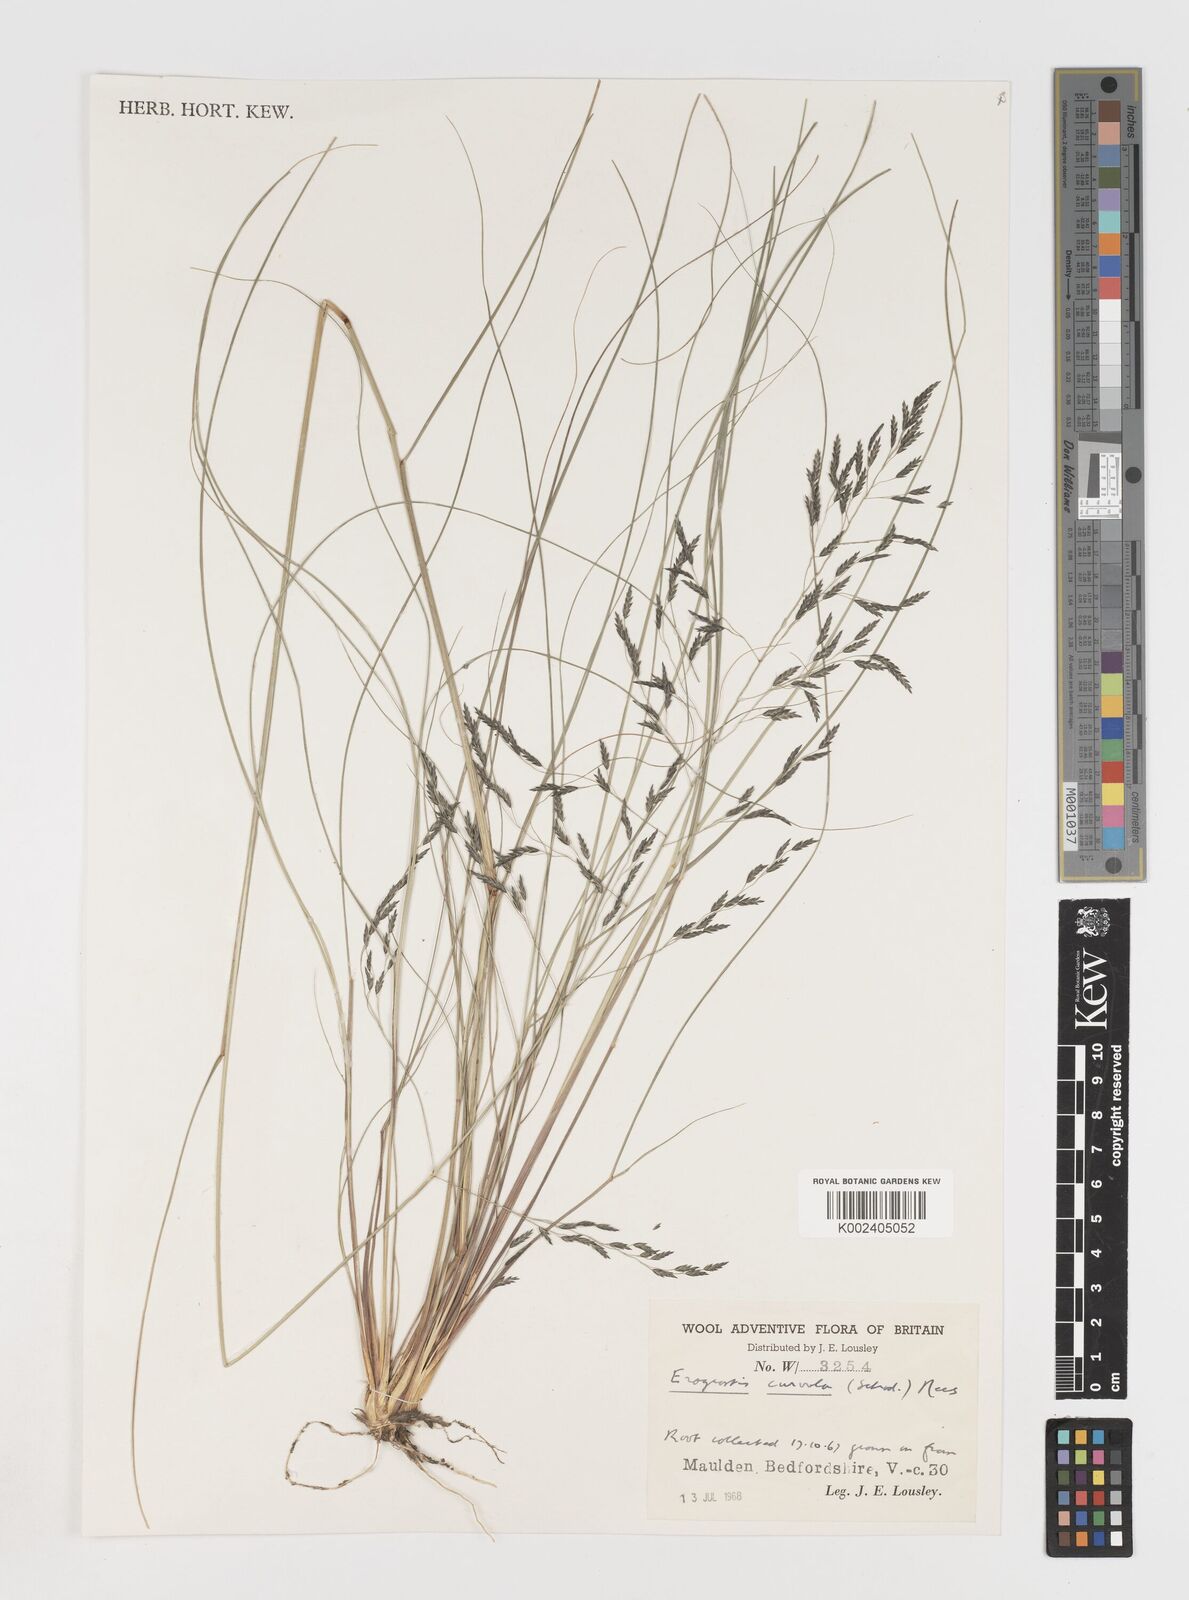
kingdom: Plantae
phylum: Tracheophyta
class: Liliopsida
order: Poales
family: Poaceae
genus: Eragrostis
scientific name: Eragrostis curvula
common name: African love-grass
